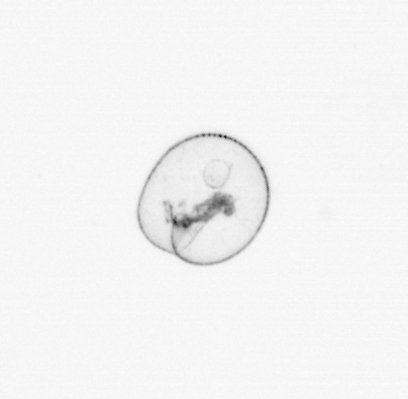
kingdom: Chromista
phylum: Myzozoa
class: Dinophyceae
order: Noctilucales
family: Noctilucaceae
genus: Noctiluca
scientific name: Noctiluca scintillans
